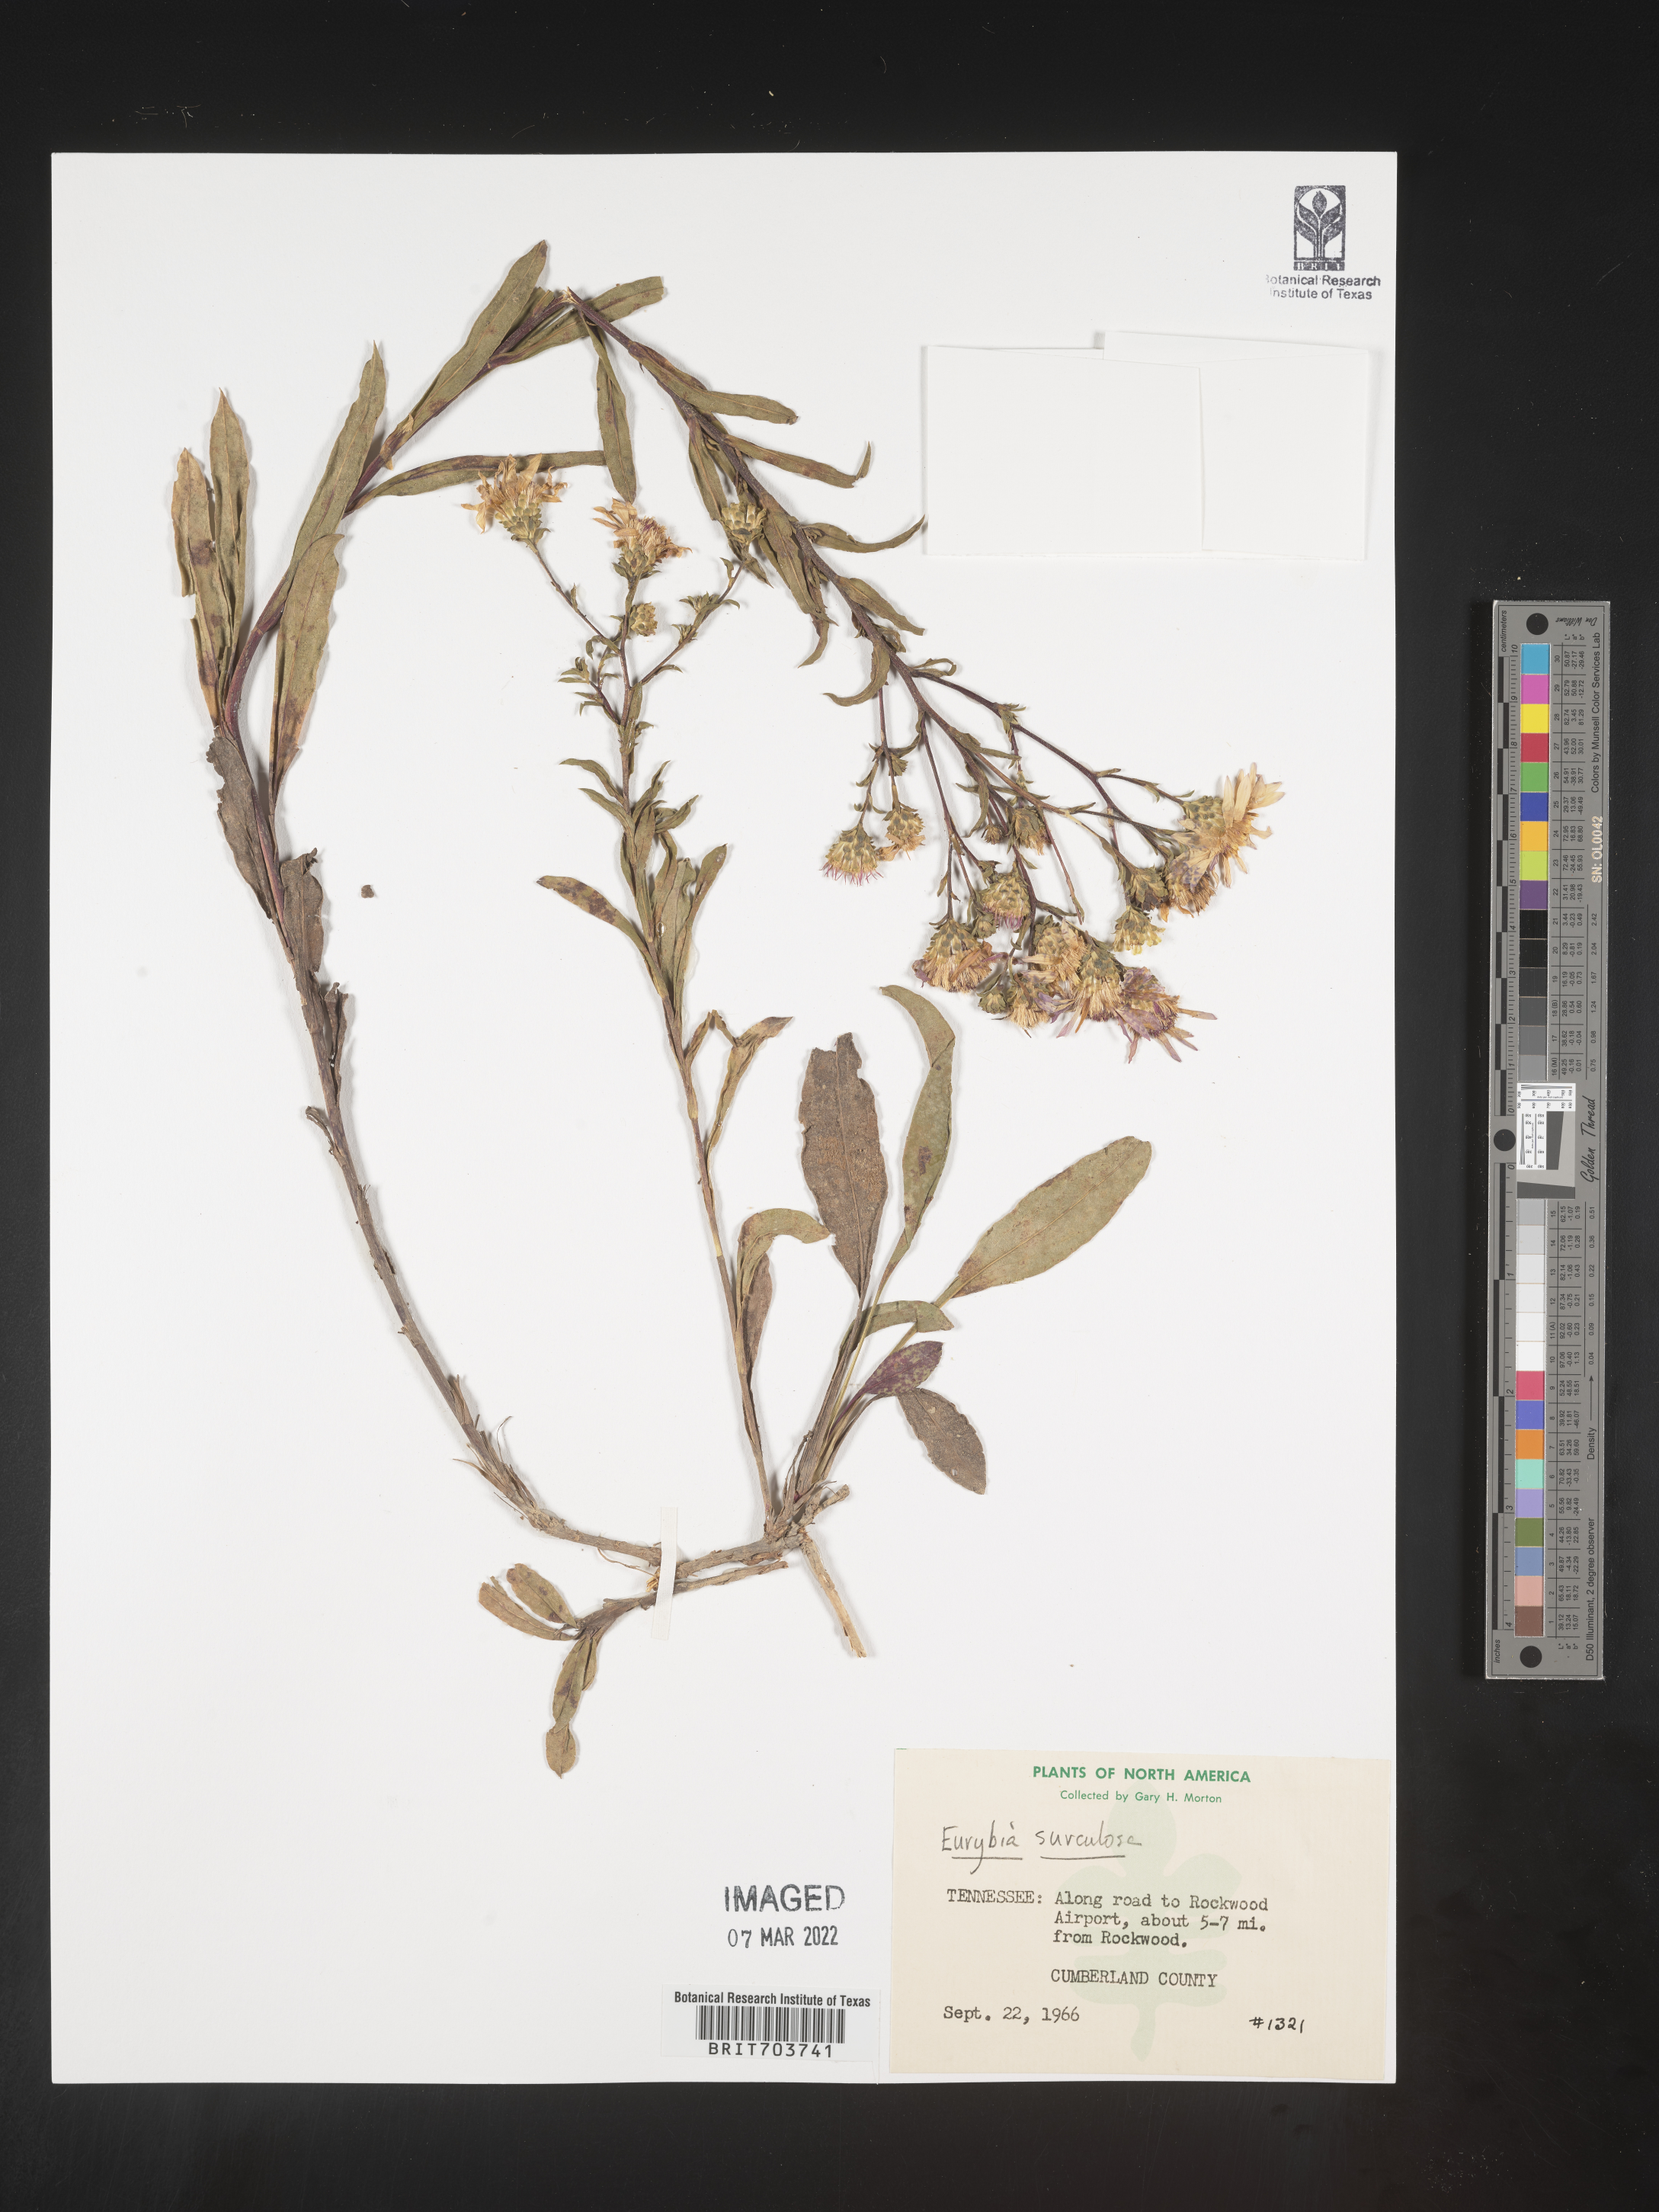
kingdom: Plantae
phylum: Tracheophyta
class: Magnoliopsida
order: Asterales
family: Asteraceae
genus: Eurybia
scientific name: Eurybia surculosa
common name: Creeping aster
